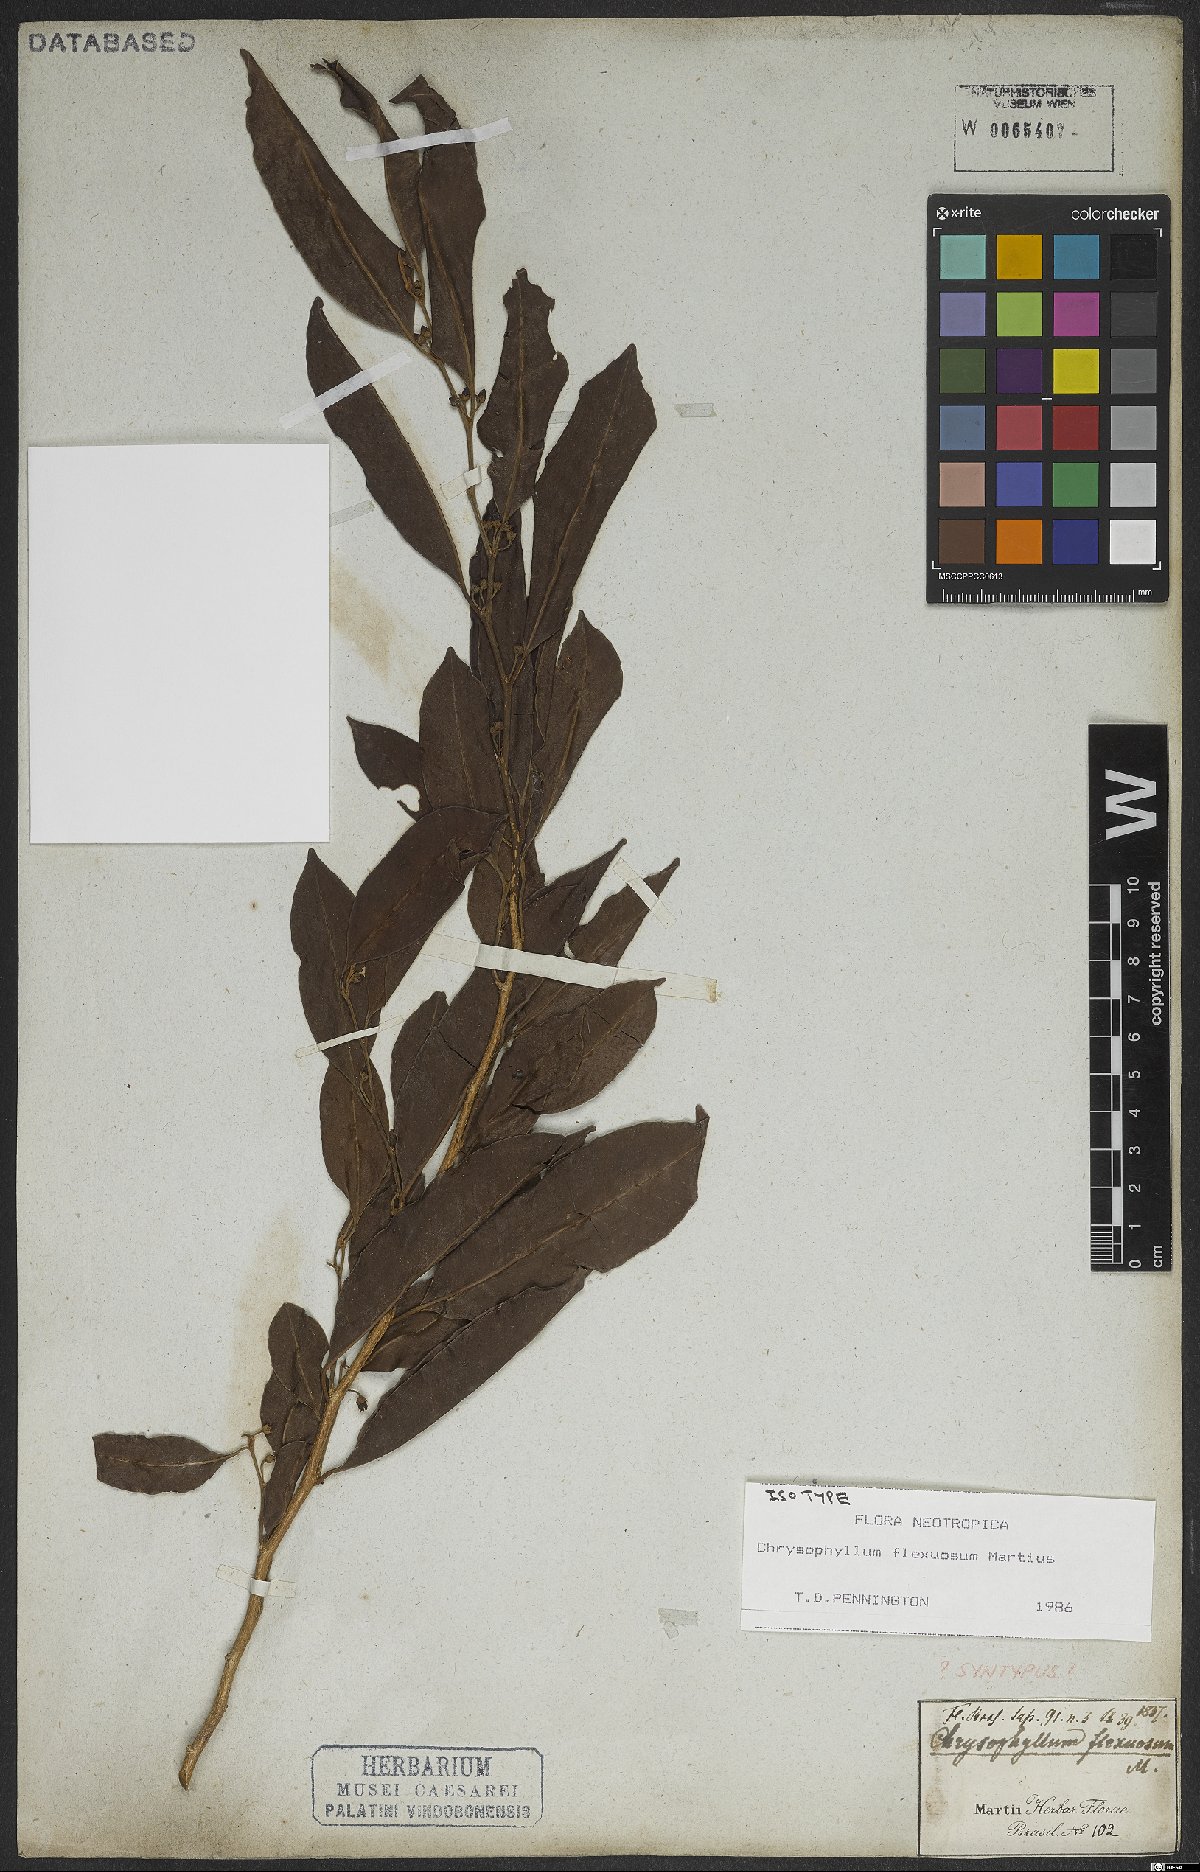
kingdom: Plantae
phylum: Tracheophyta
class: Magnoliopsida
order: Ericales
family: Sapotaceae
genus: Chrysophyllum
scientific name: Chrysophyllum flexuosum
